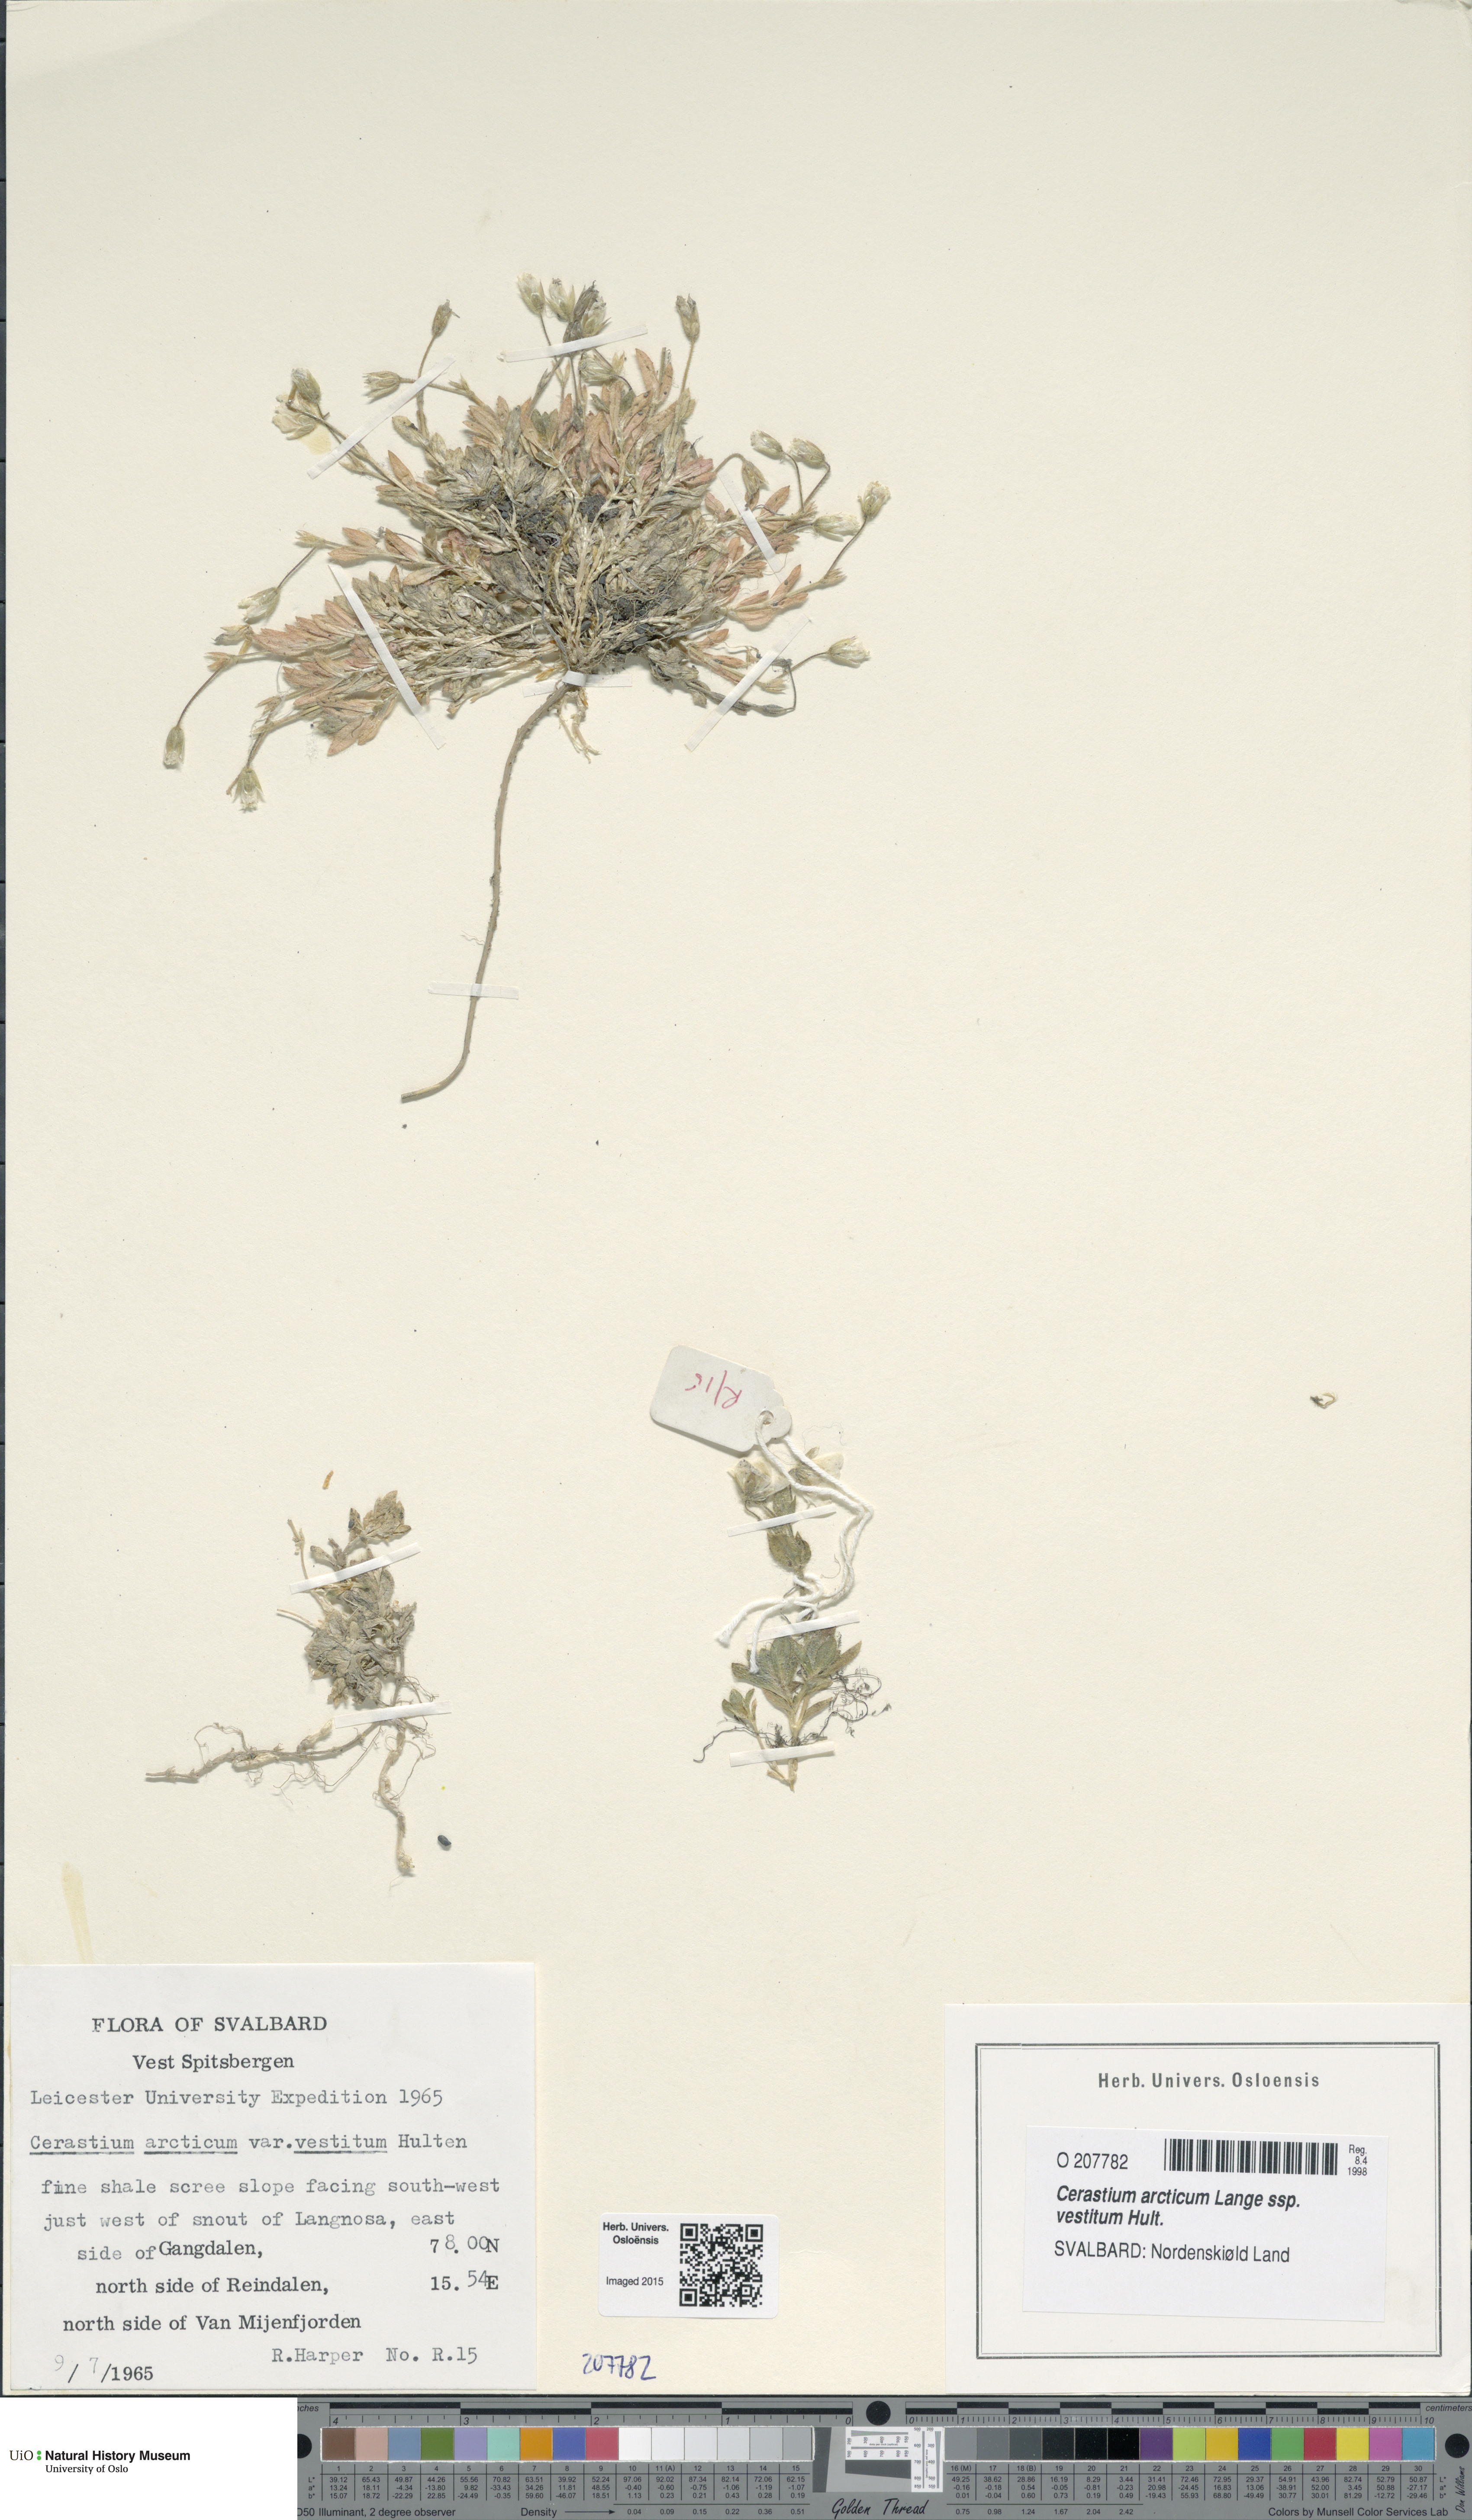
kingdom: Plantae
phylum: Tracheophyta
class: Magnoliopsida
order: Caryophyllales
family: Caryophyllaceae
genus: Cerastium
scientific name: Cerastium arcticum
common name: Arctic mouse-ear
